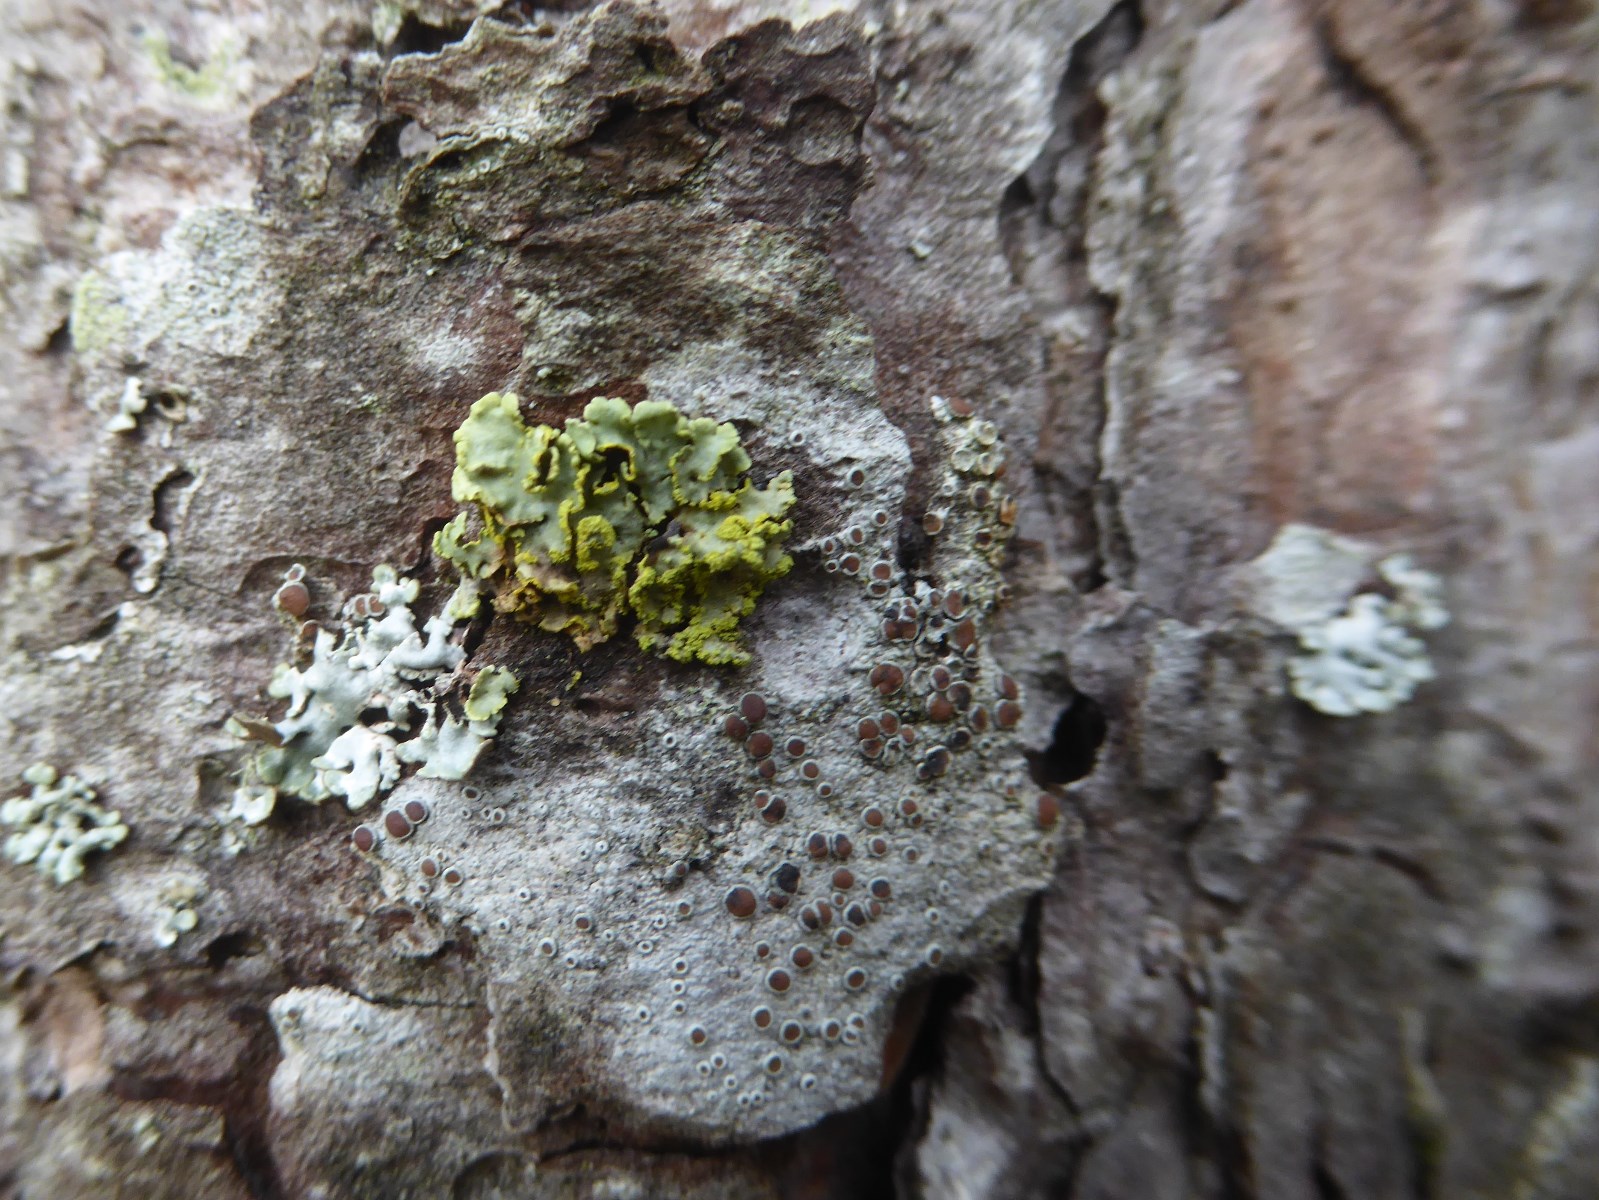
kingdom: Fungi
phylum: Ascomycota
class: Lecanoromycetes
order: Lecanorales
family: Parmeliaceae
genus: Vulpicida
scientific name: Vulpicida pinastri
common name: gul kruslav
